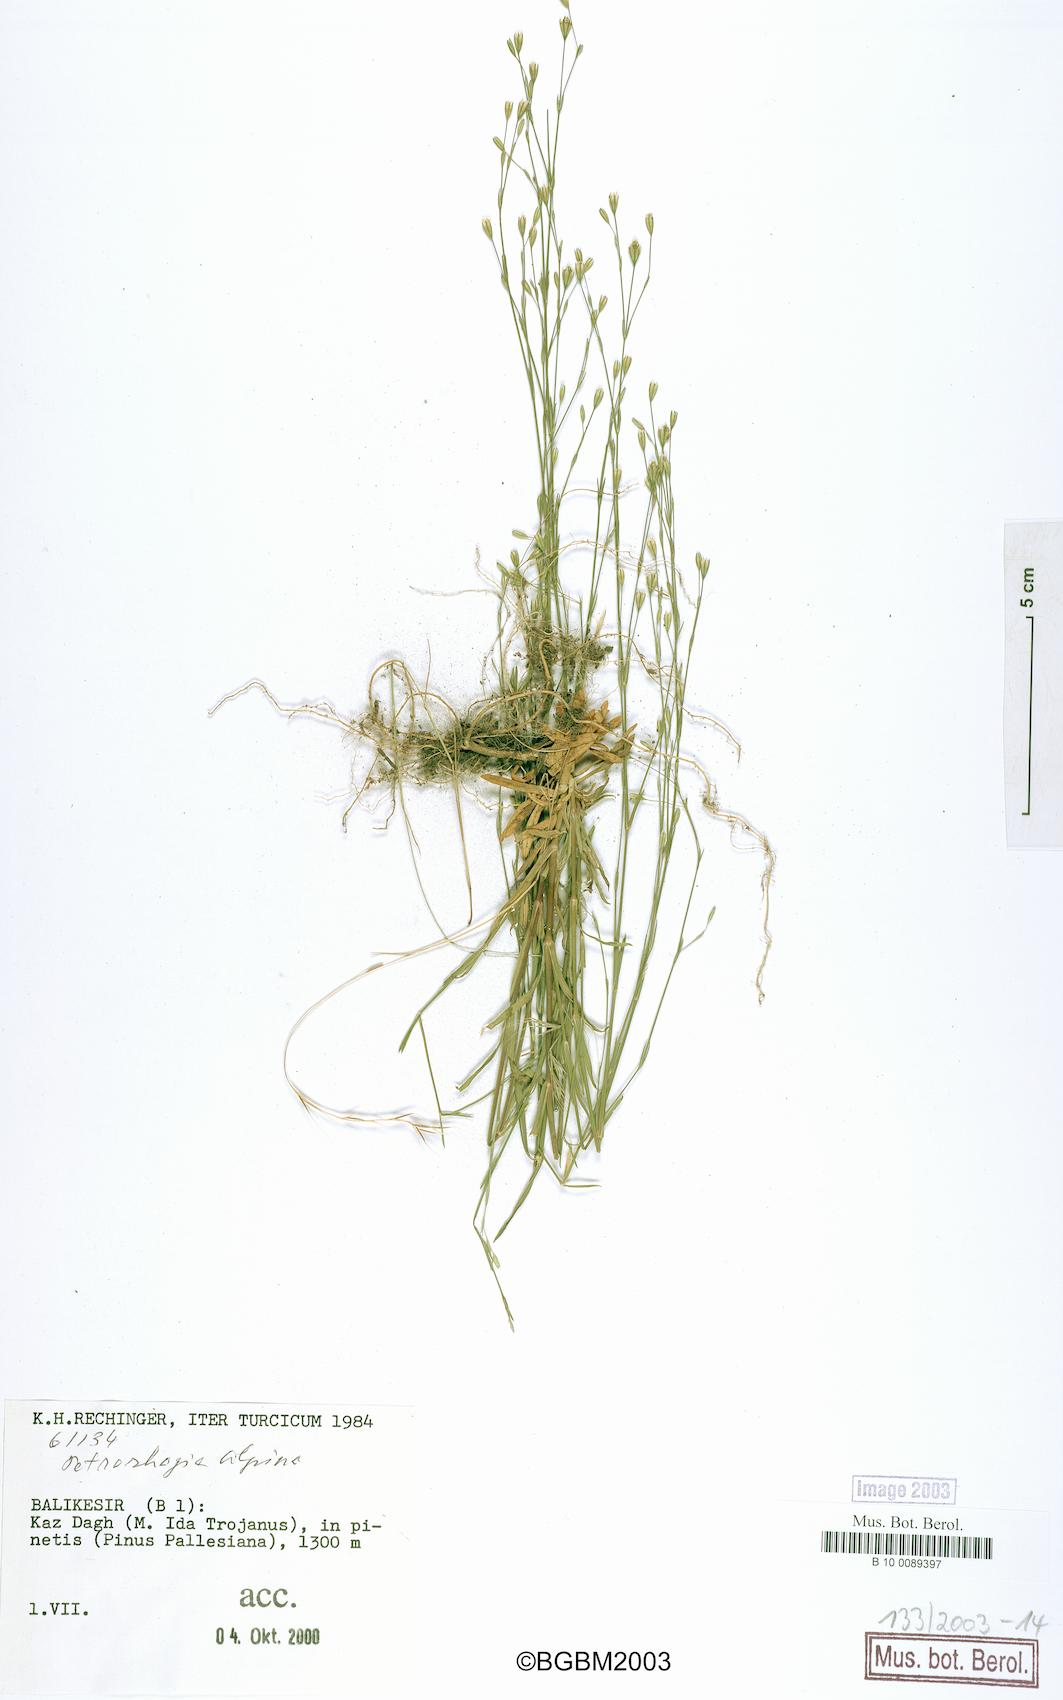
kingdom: Plantae
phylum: Tracheophyta
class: Magnoliopsida
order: Caryophyllales
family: Caryophyllaceae
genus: Petrorhagia
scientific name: Petrorhagia alpina
